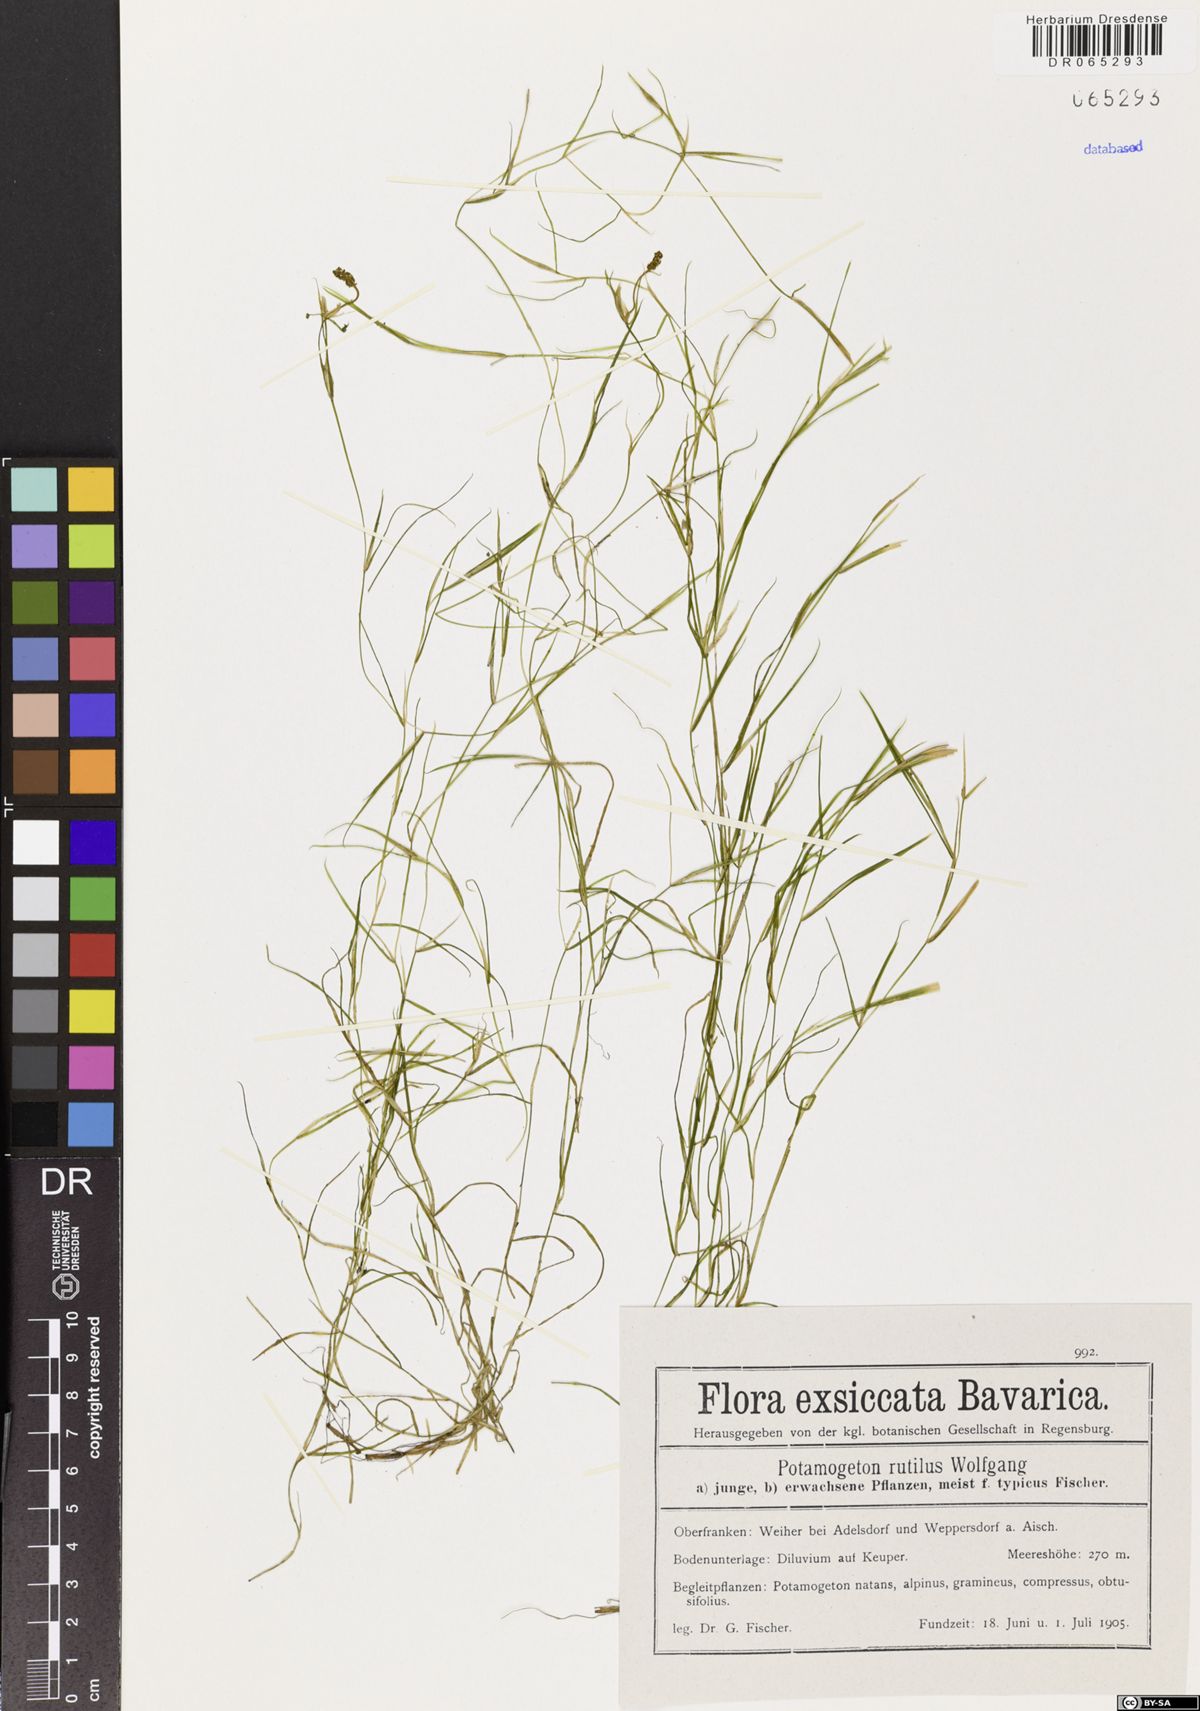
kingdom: Plantae
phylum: Tracheophyta
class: Liliopsida
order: Alismatales
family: Potamogetonaceae
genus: Potamogeton
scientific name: Potamogeton rutilus
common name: Shetland pondweed
